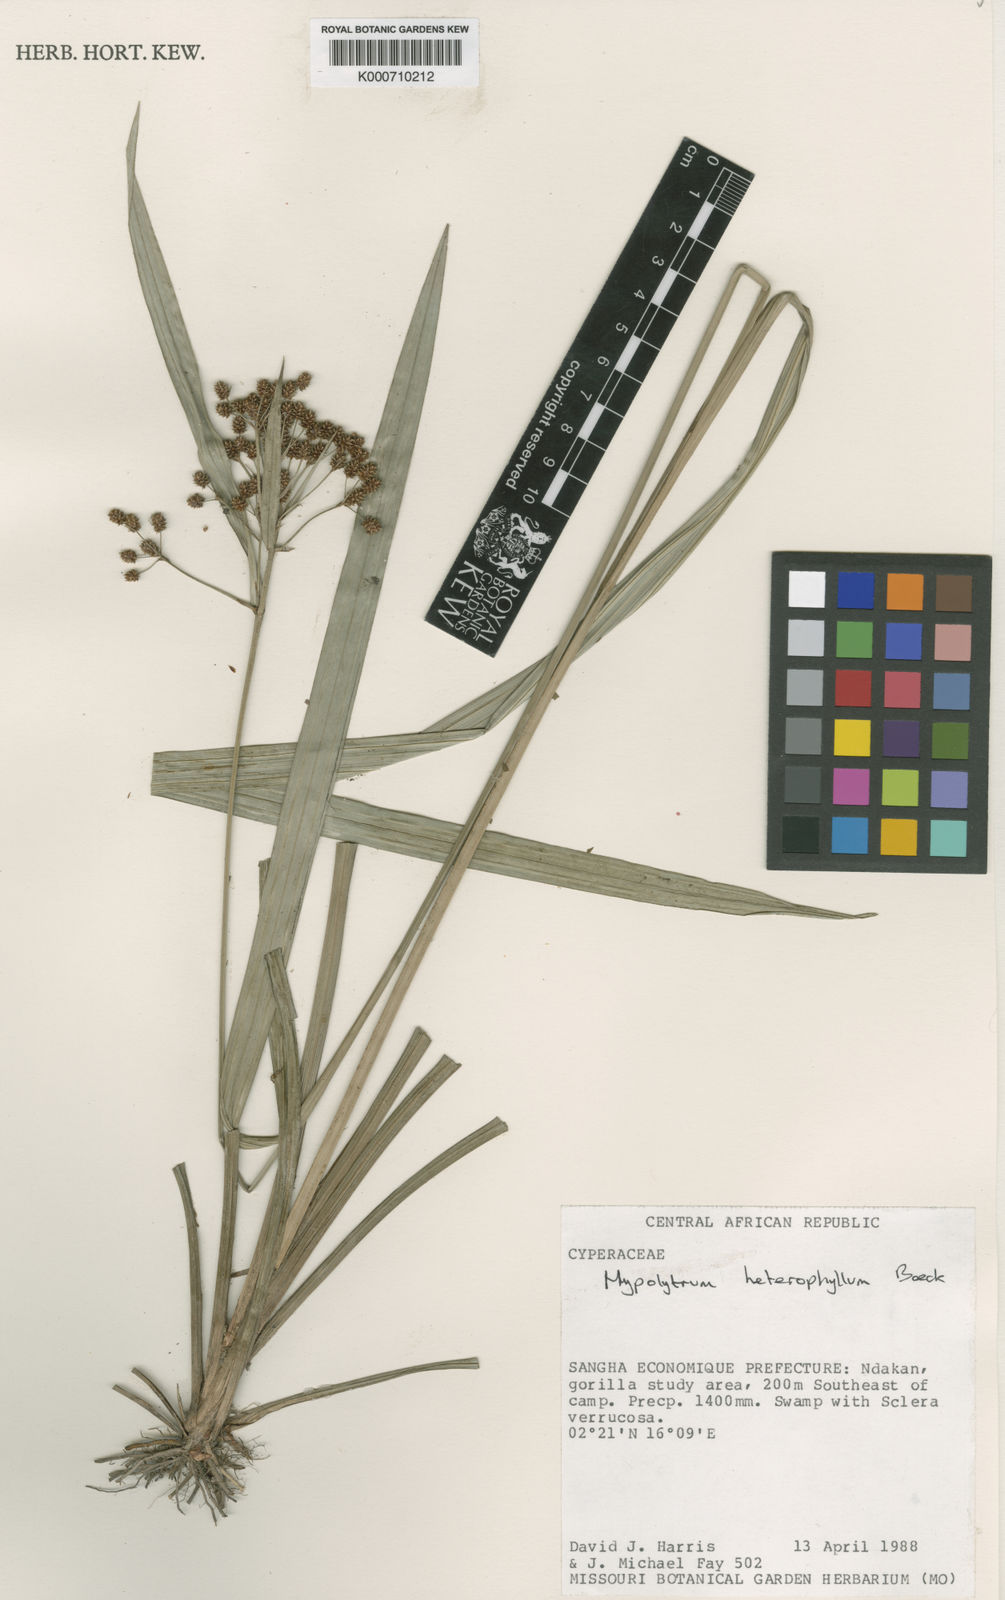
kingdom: Plantae
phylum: Tracheophyta
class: Liliopsida
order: Poales
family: Cyperaceae
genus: Hypolytrum
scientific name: Hypolytrum heterophyllum
